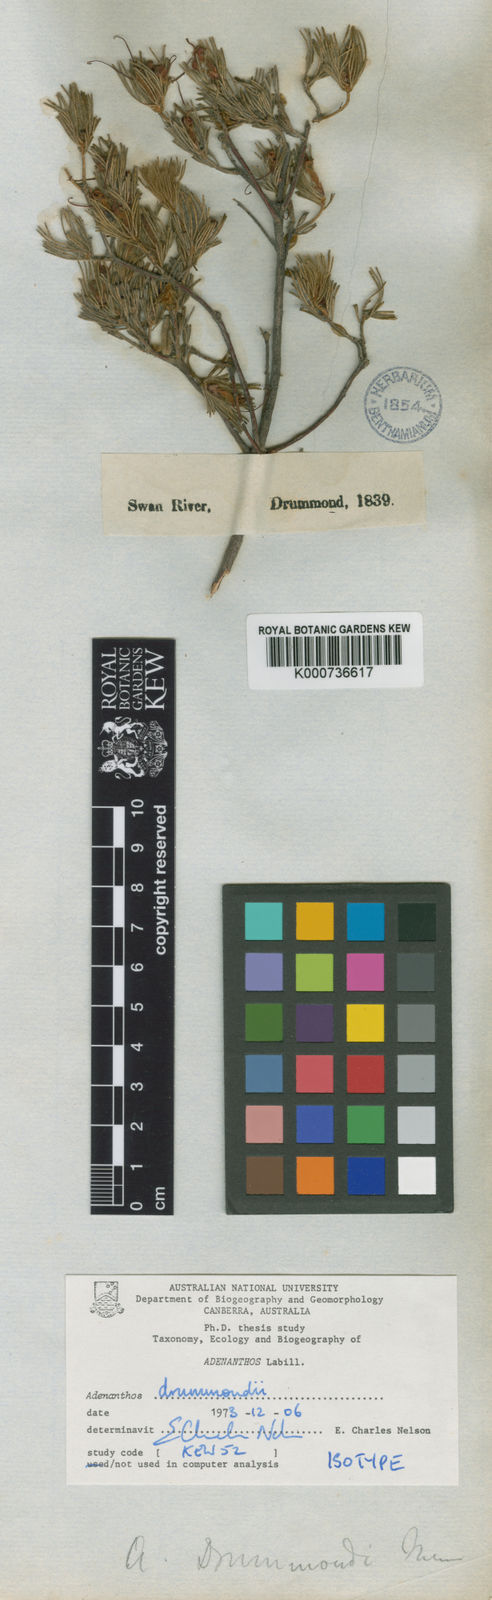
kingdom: Plantae
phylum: Tracheophyta
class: Magnoliopsida
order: Proteales
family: Proteaceae
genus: Adenanthos
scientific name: Adenanthos drummondii
